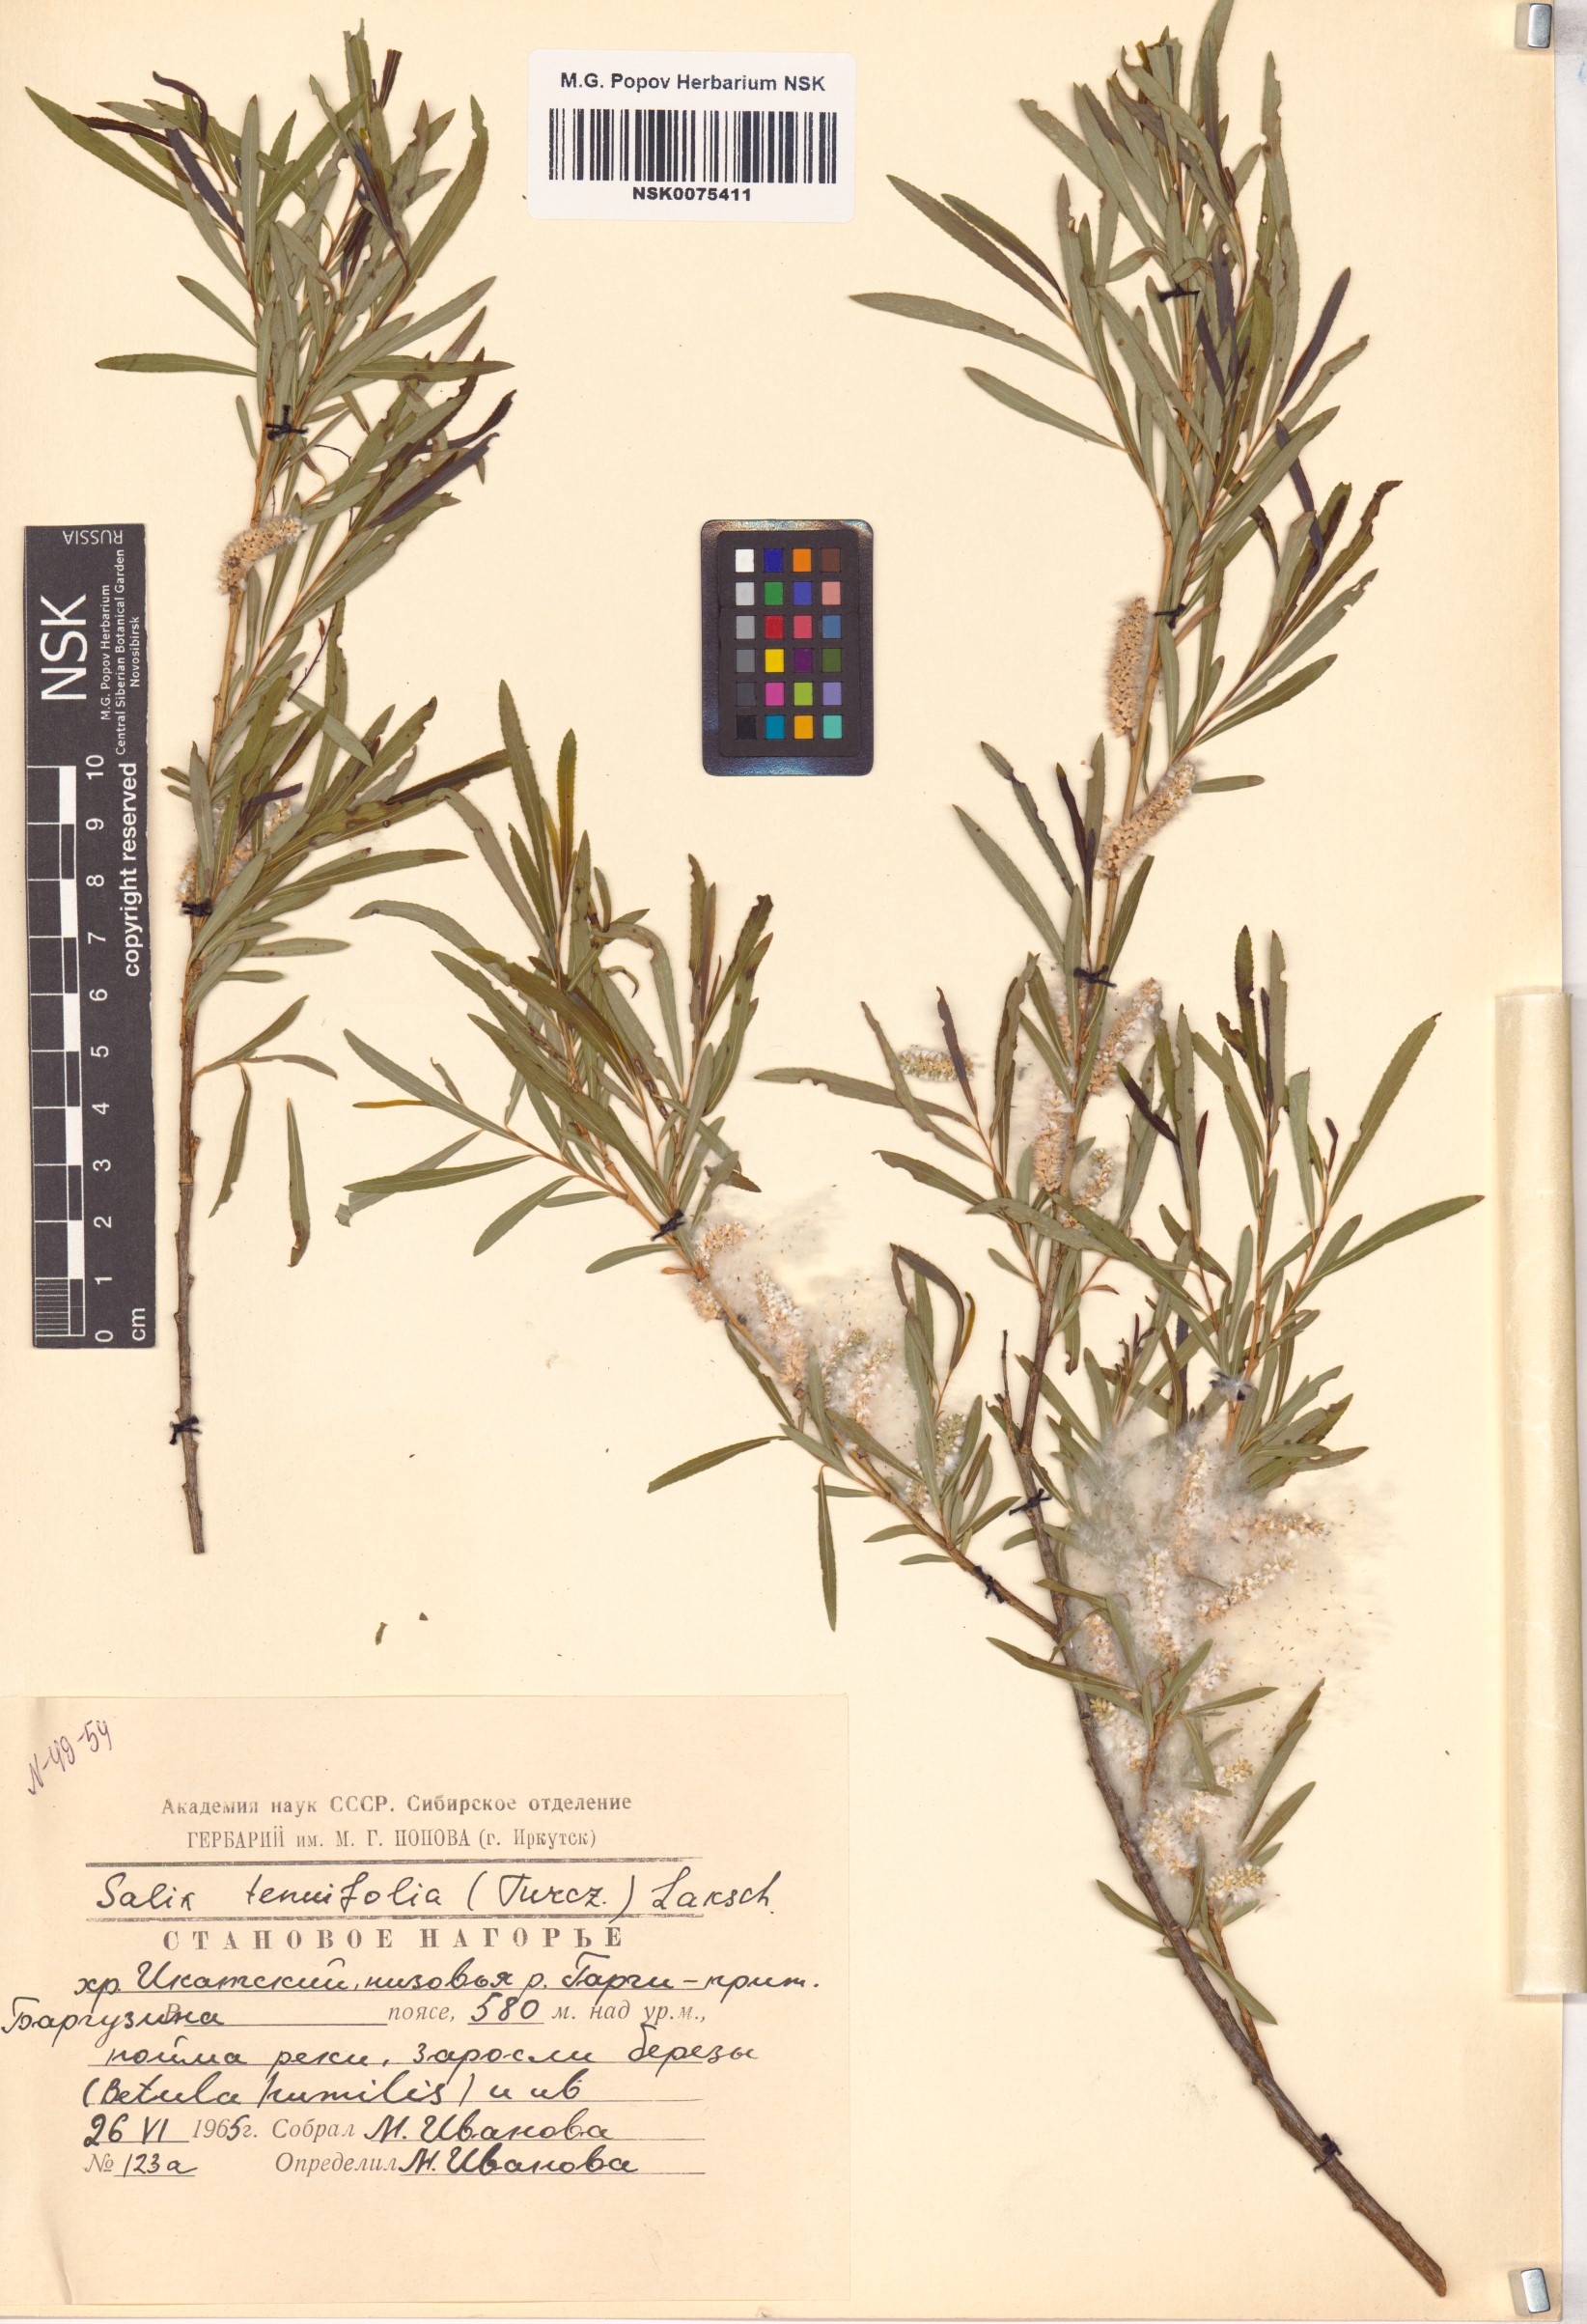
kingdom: Plantae
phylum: Tracheophyta
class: Magnoliopsida
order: Malpighiales
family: Salicaceae
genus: Salix
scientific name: Salix
